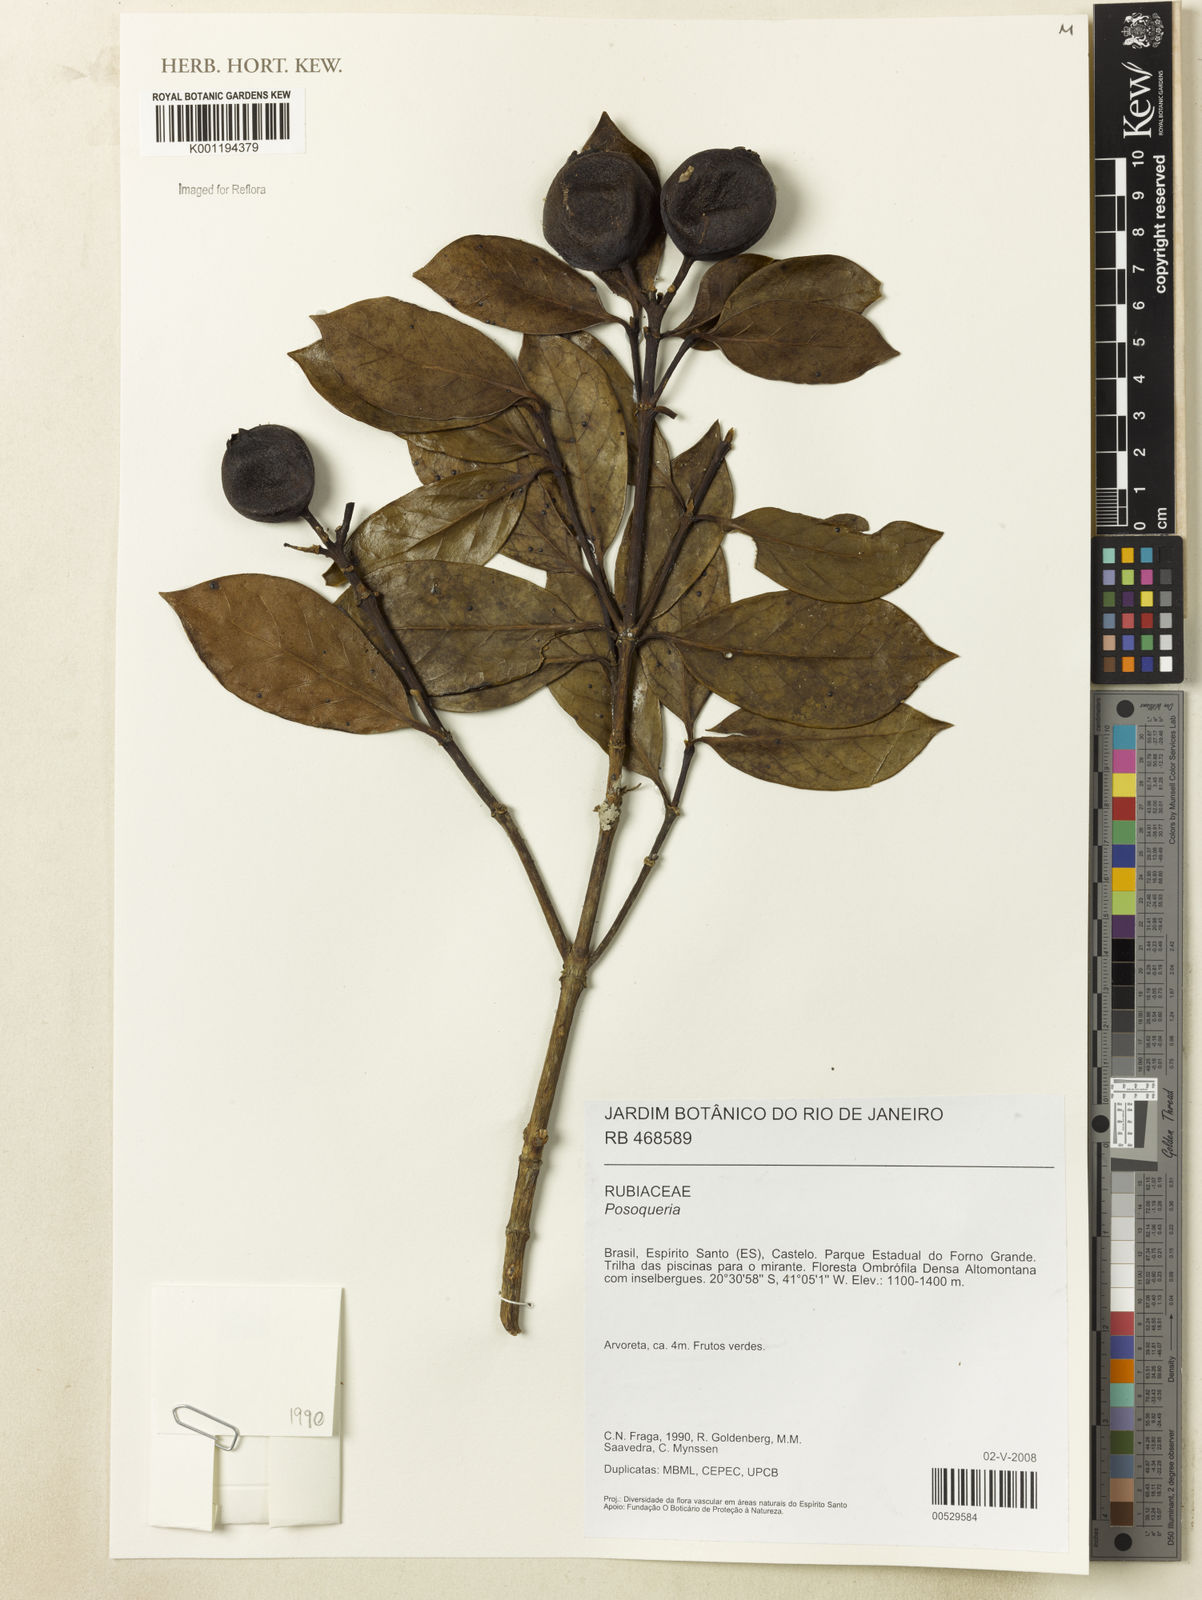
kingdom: Plantae
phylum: Tracheophyta
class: Magnoliopsida
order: Gentianales
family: Rubiaceae
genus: Posoqueria
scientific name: Posoqueria
